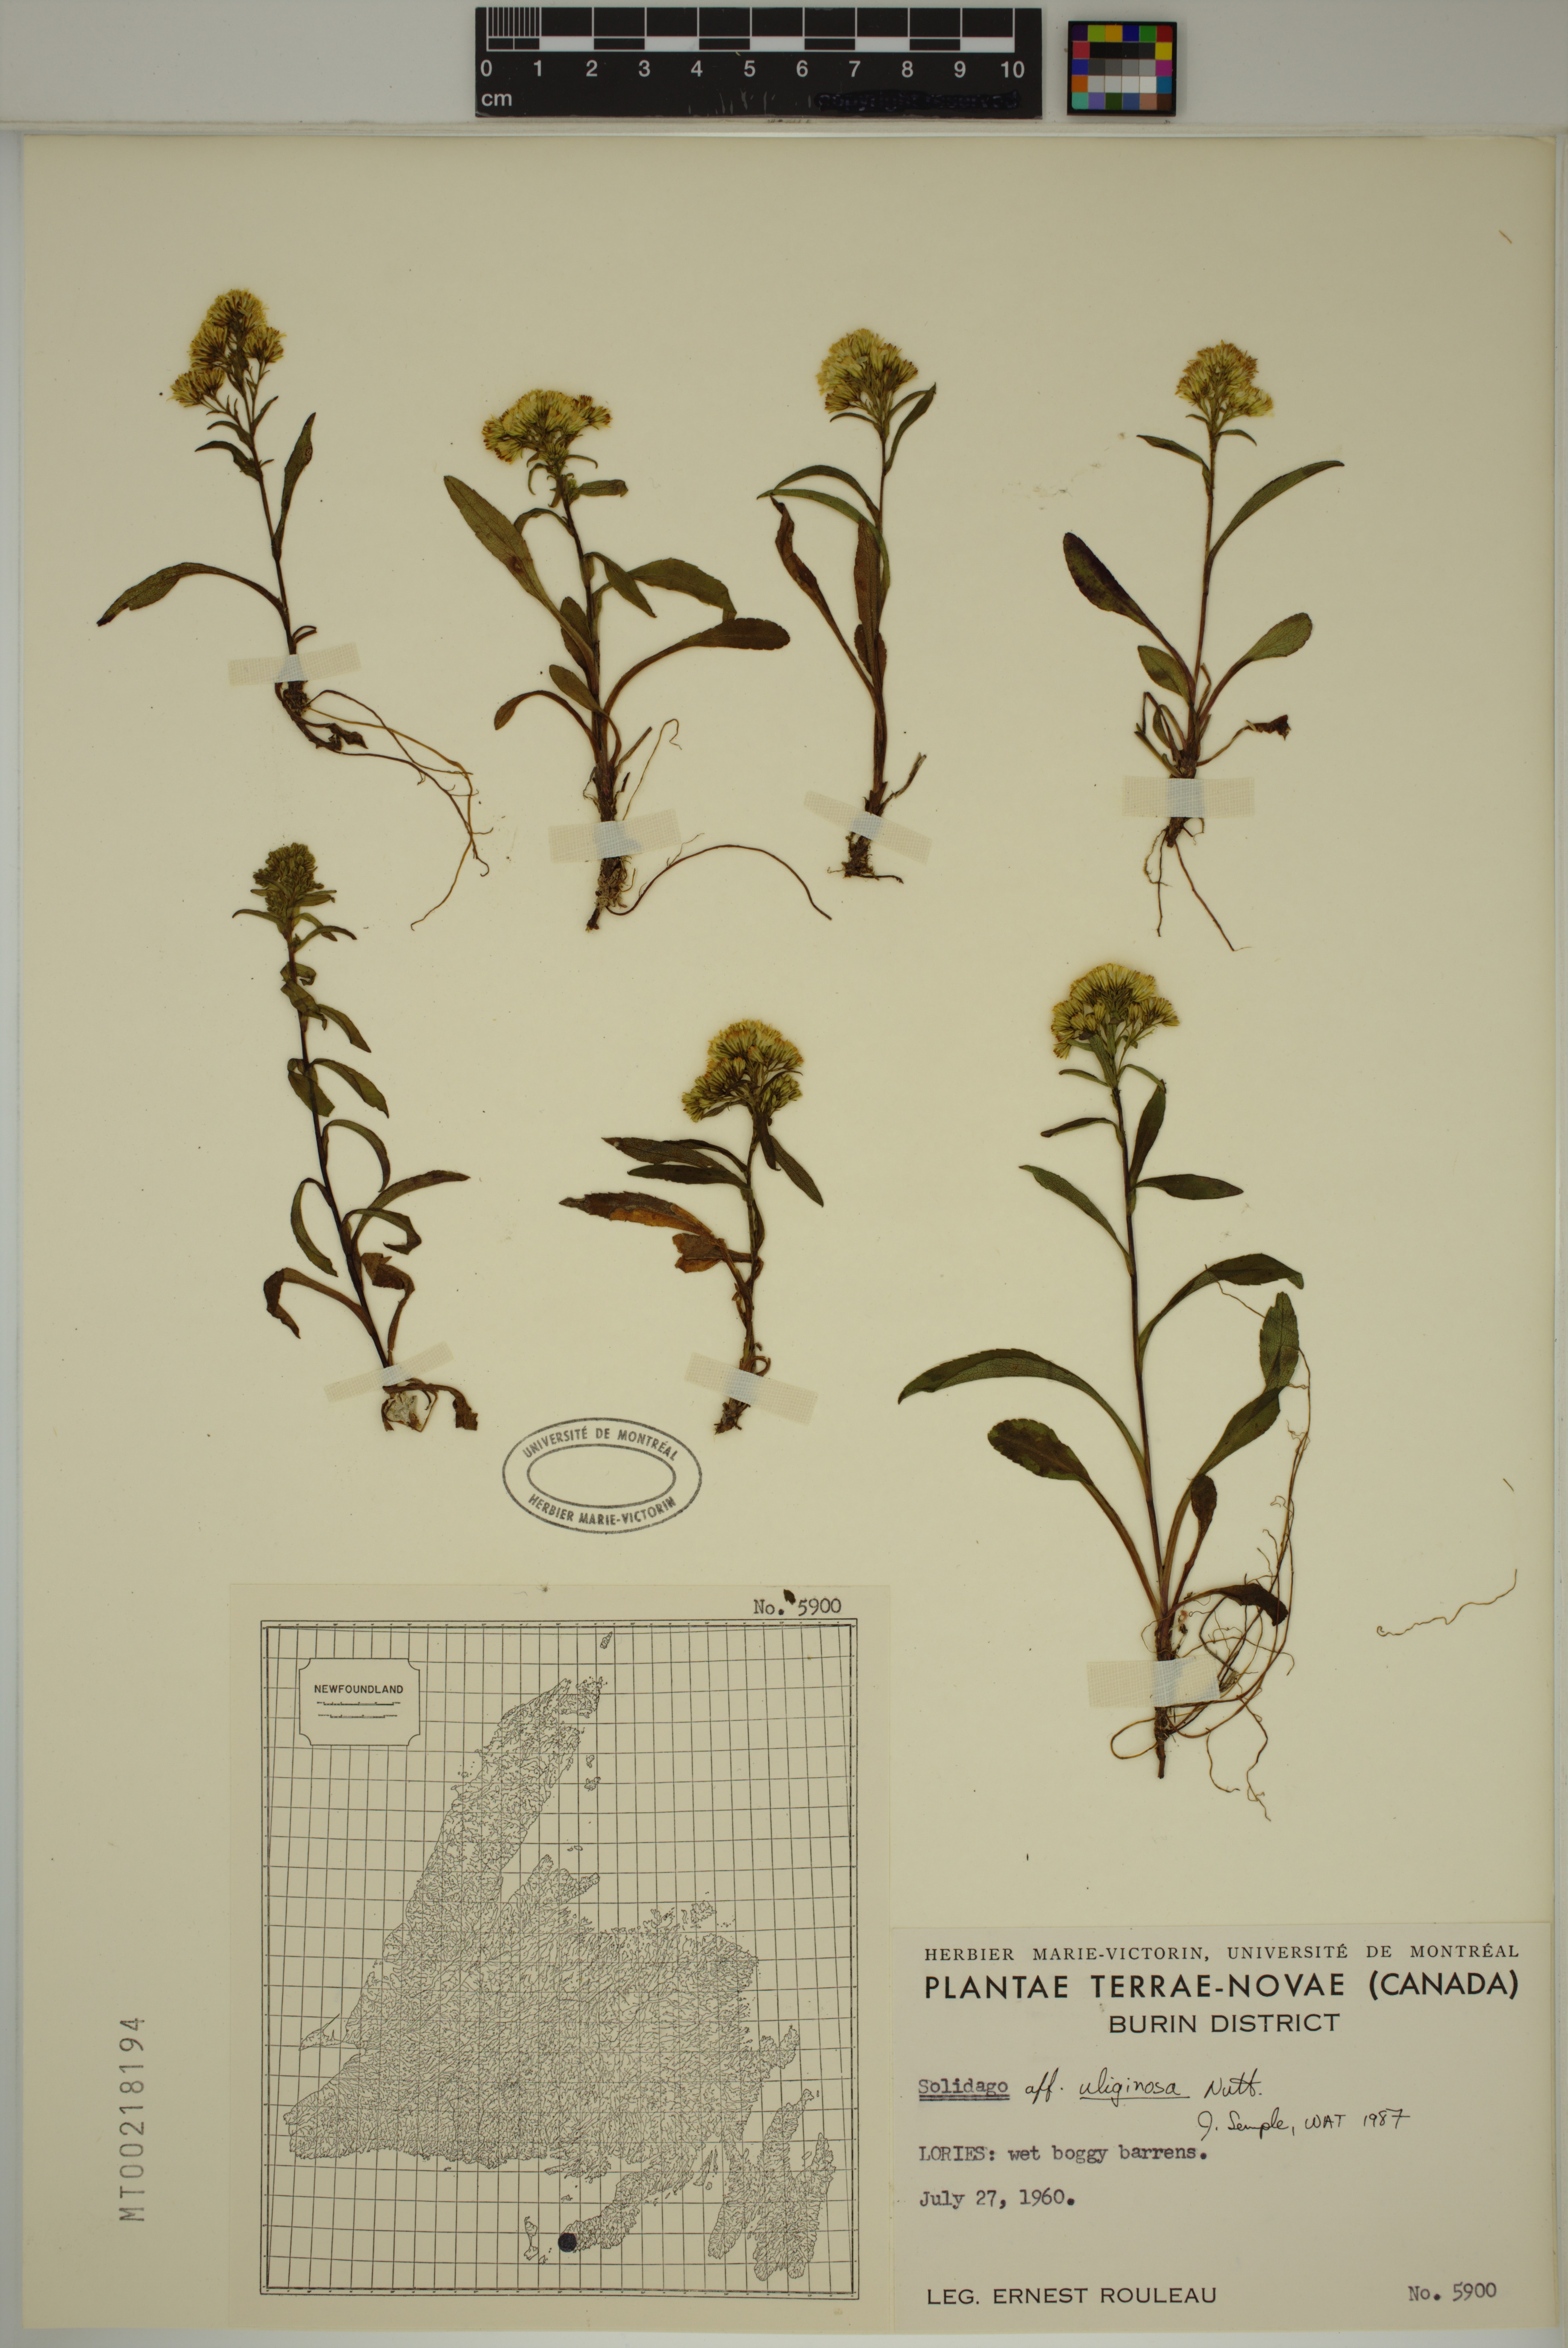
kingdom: Plantae
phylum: Tracheophyta
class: Magnoliopsida
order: Asterales
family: Asteraceae
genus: Solidago
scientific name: Solidago uliginosa
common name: Bog goldenrod
